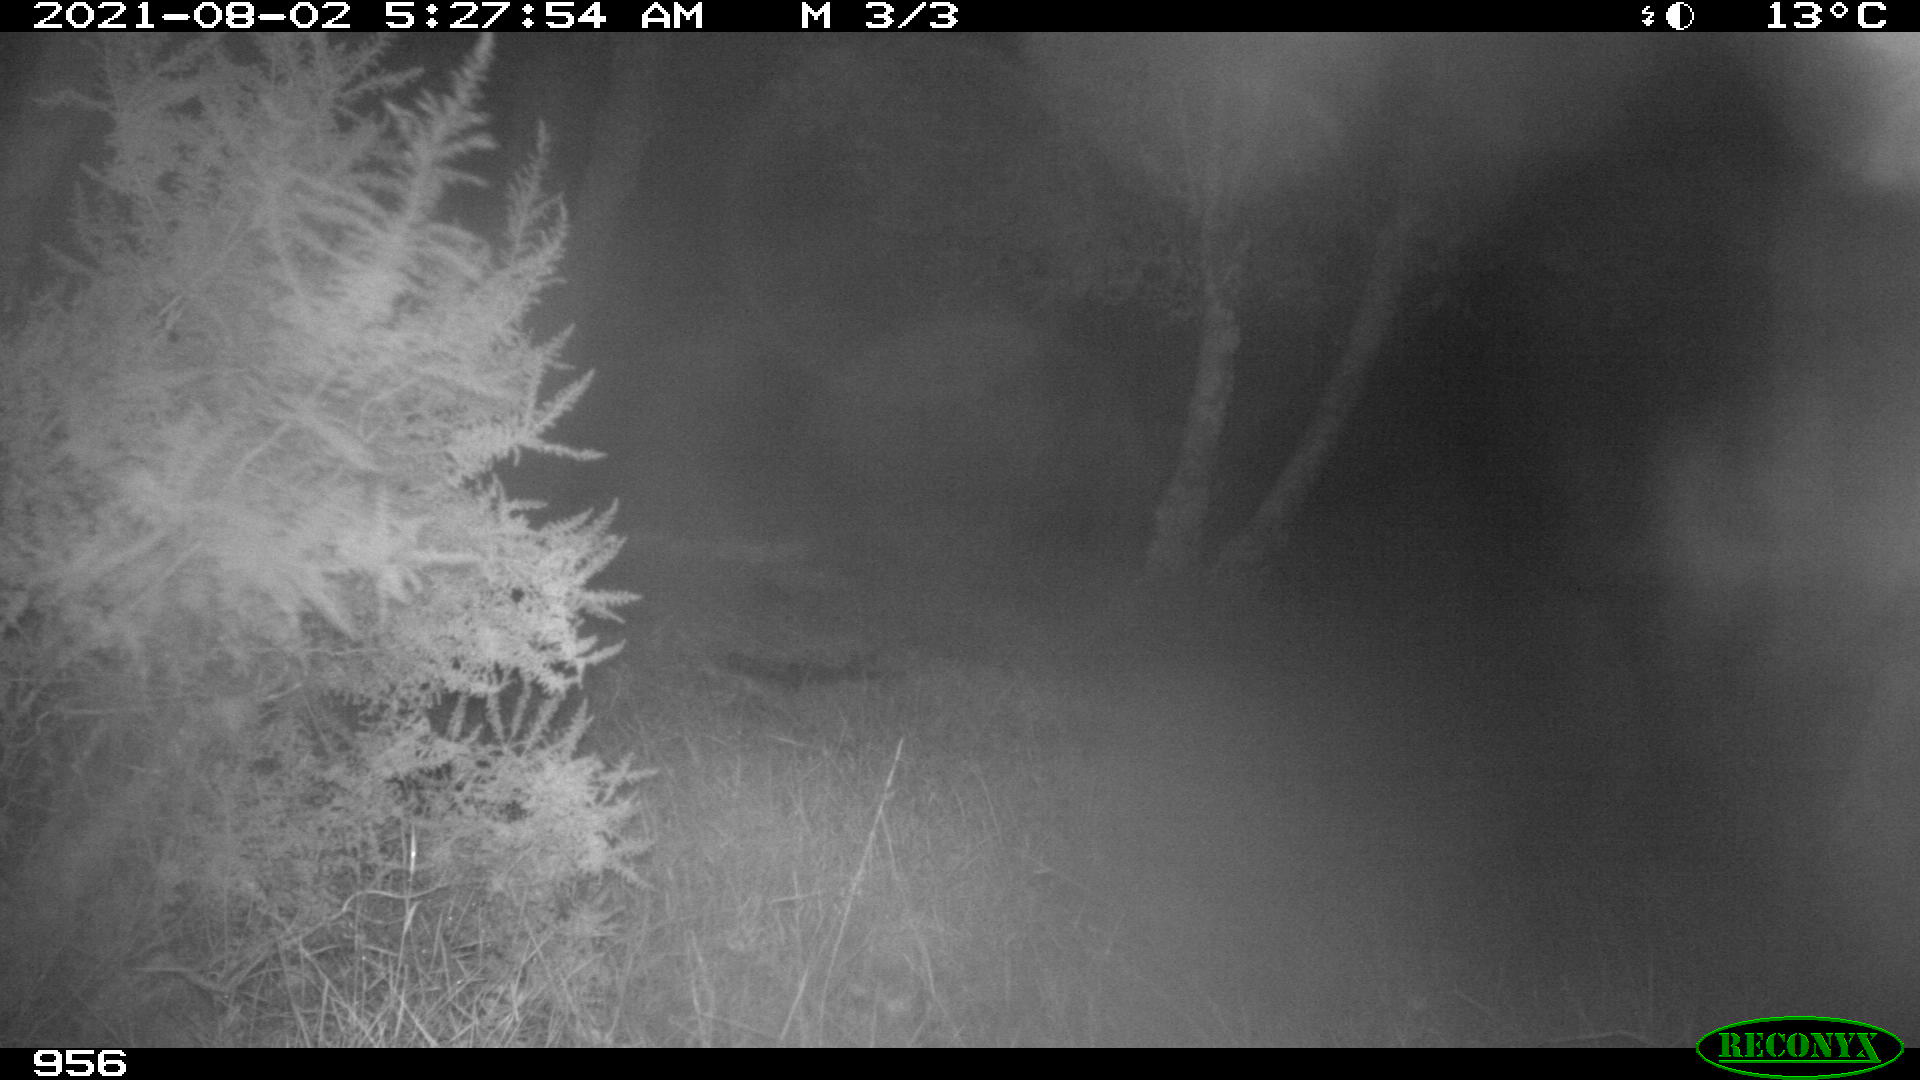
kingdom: Animalia
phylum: Chordata
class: Mammalia
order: Perissodactyla
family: Equidae
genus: Equus
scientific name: Equus caballus
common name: Horse
